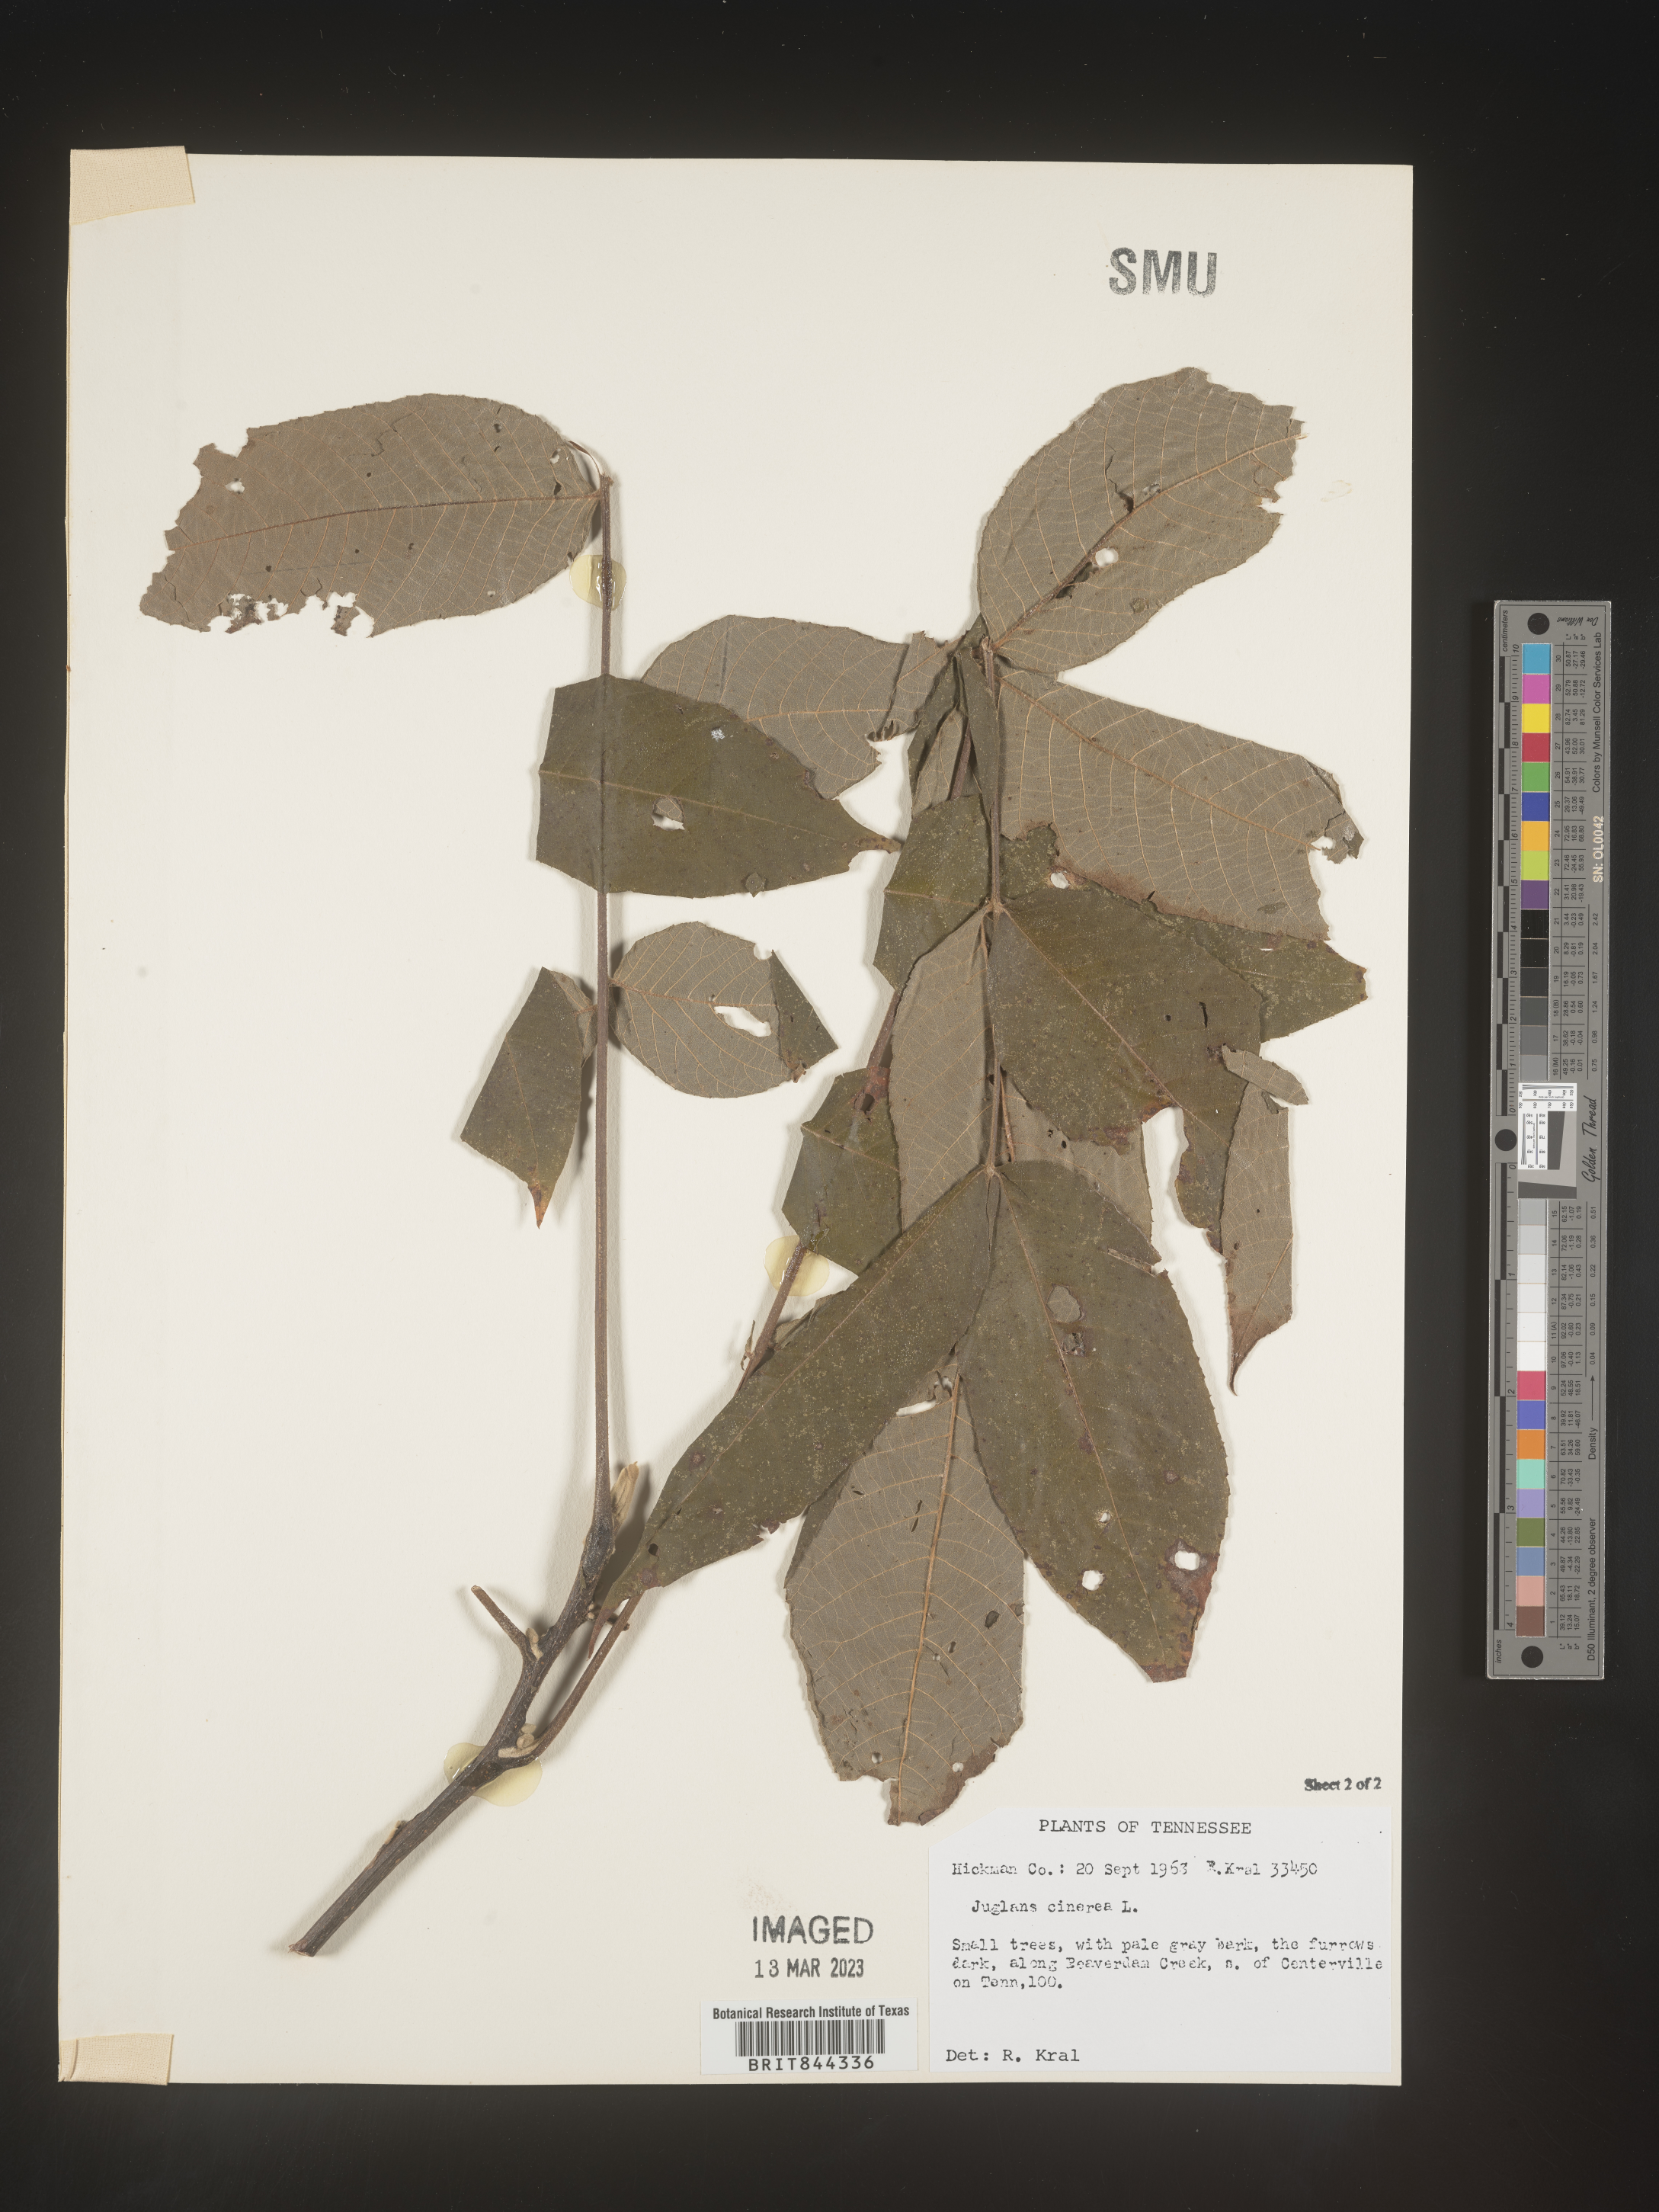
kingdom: Plantae
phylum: Tracheophyta
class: Magnoliopsida
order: Fagales
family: Juglandaceae
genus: Juglans
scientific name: Juglans cinerea
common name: Butternut
